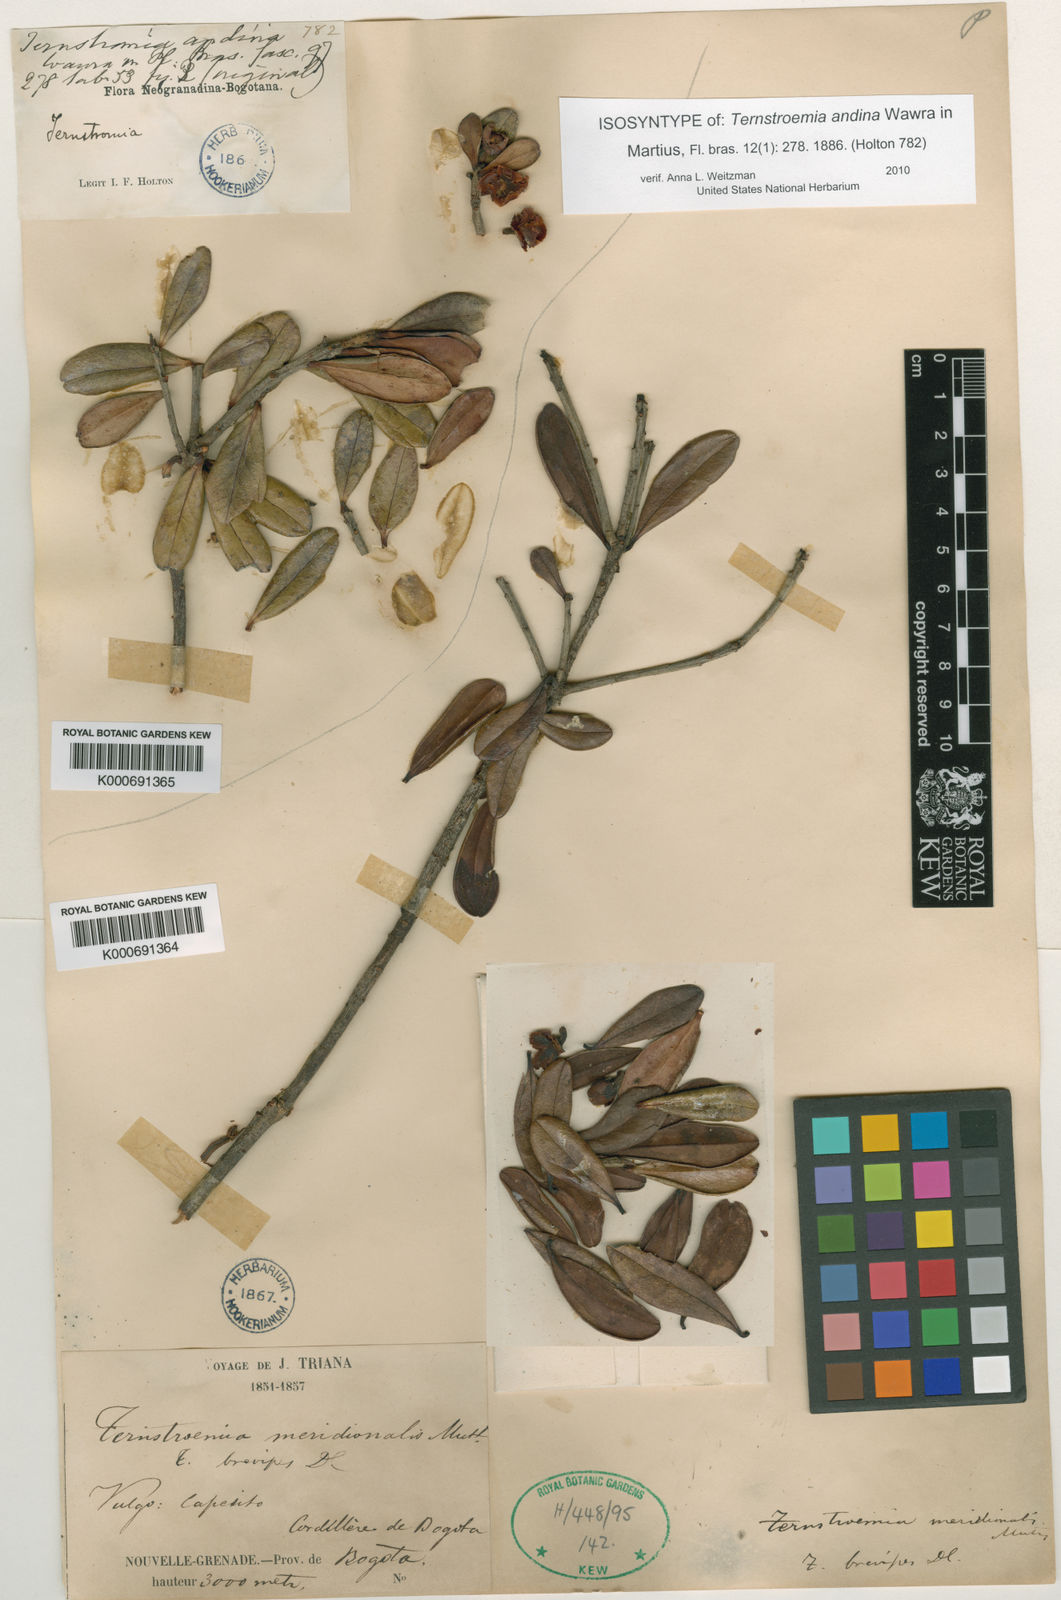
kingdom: Plantae
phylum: Tracheophyta
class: Magnoliopsida
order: Ericales
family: Pentaphylacaceae
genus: Ternstroemia
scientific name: Ternstroemia
